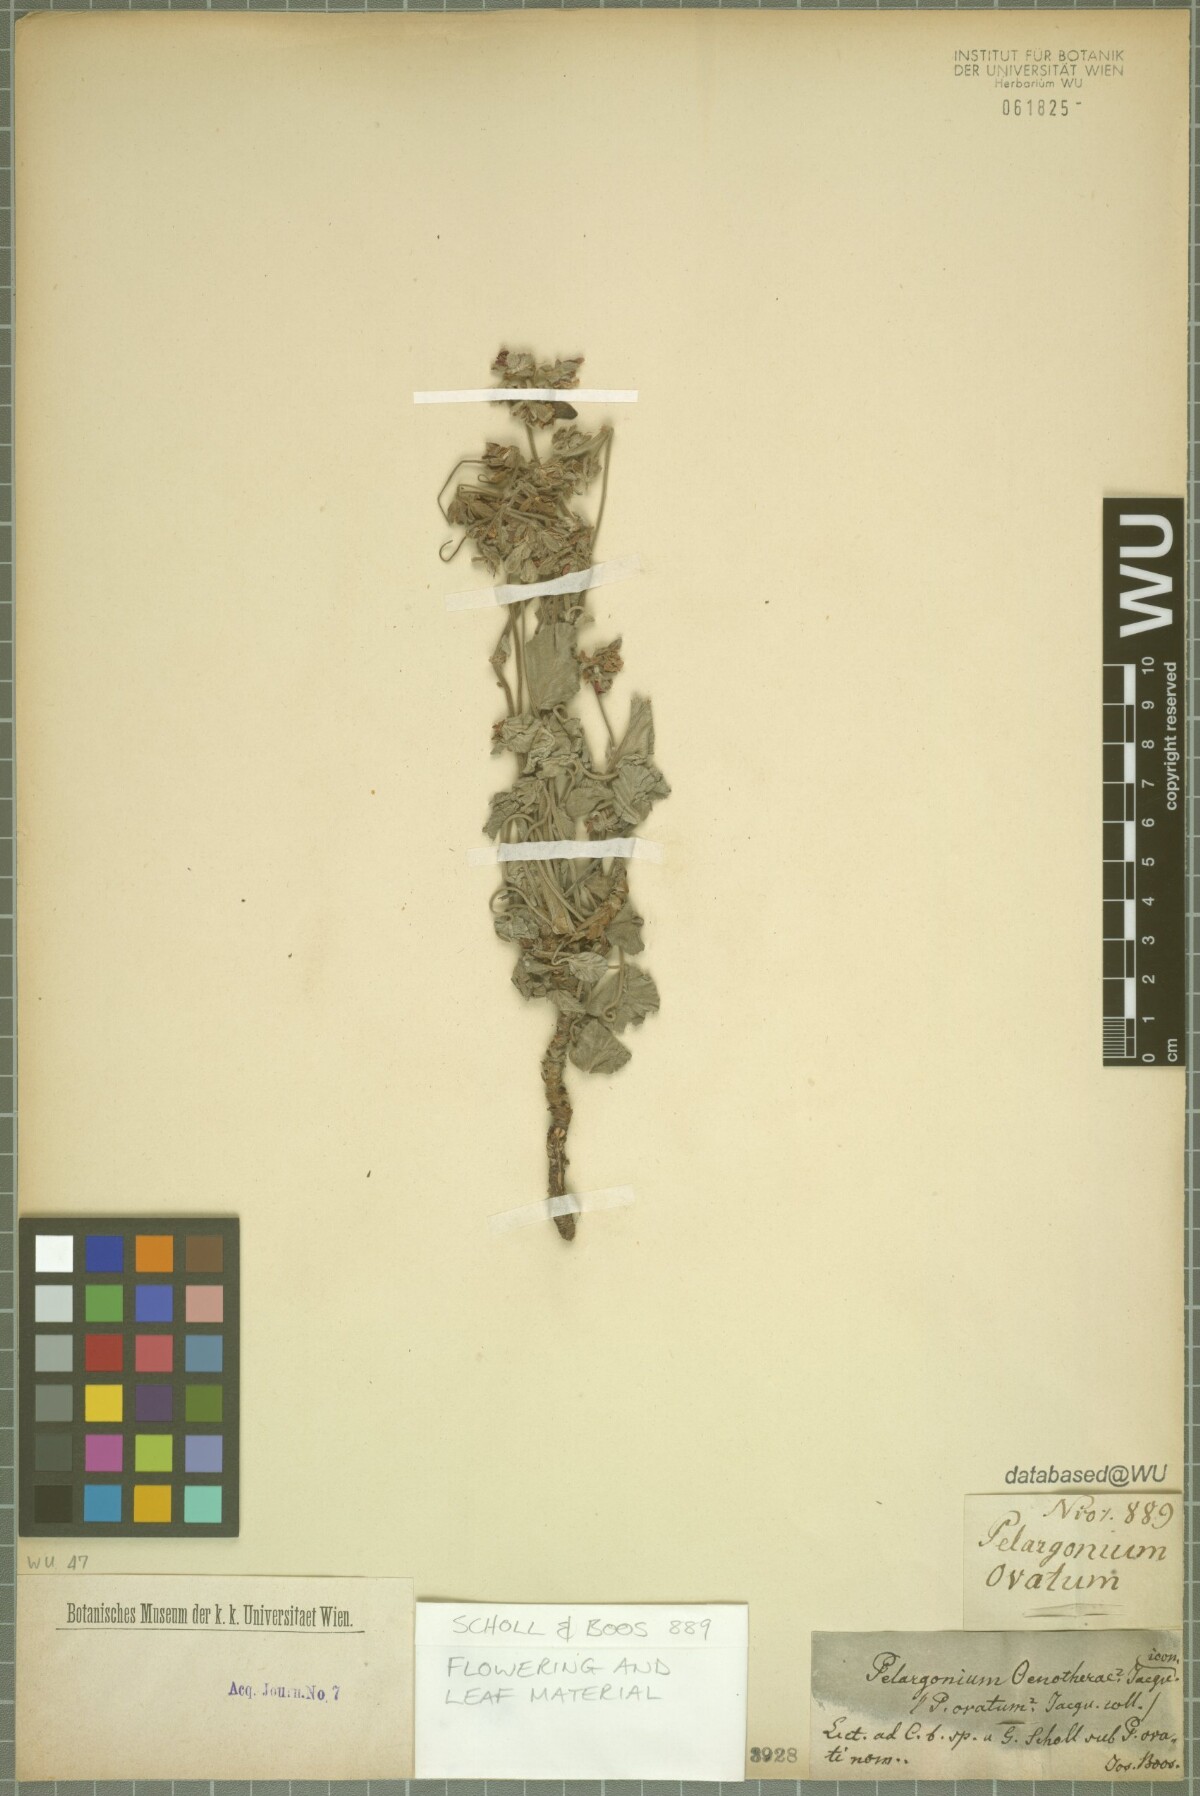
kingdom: Plantae
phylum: Tracheophyta
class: Magnoliopsida
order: Geraniales
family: Geraniaceae
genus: Pelargonium
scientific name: Pelargonium oenotherae
